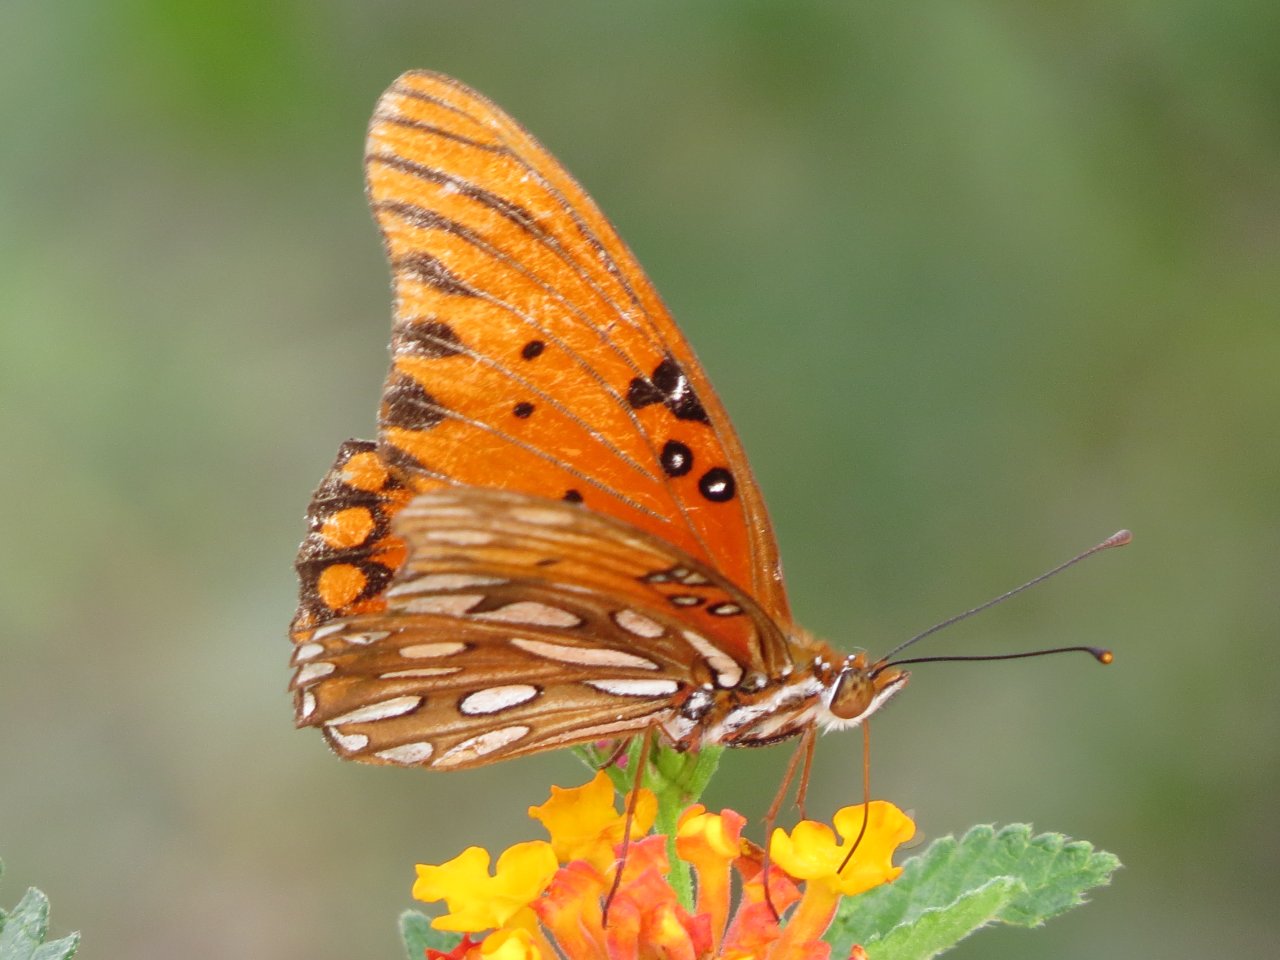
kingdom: Animalia
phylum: Arthropoda
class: Insecta
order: Lepidoptera
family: Nymphalidae
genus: Dione
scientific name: Dione vanillae
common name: Gulf Fritillary
